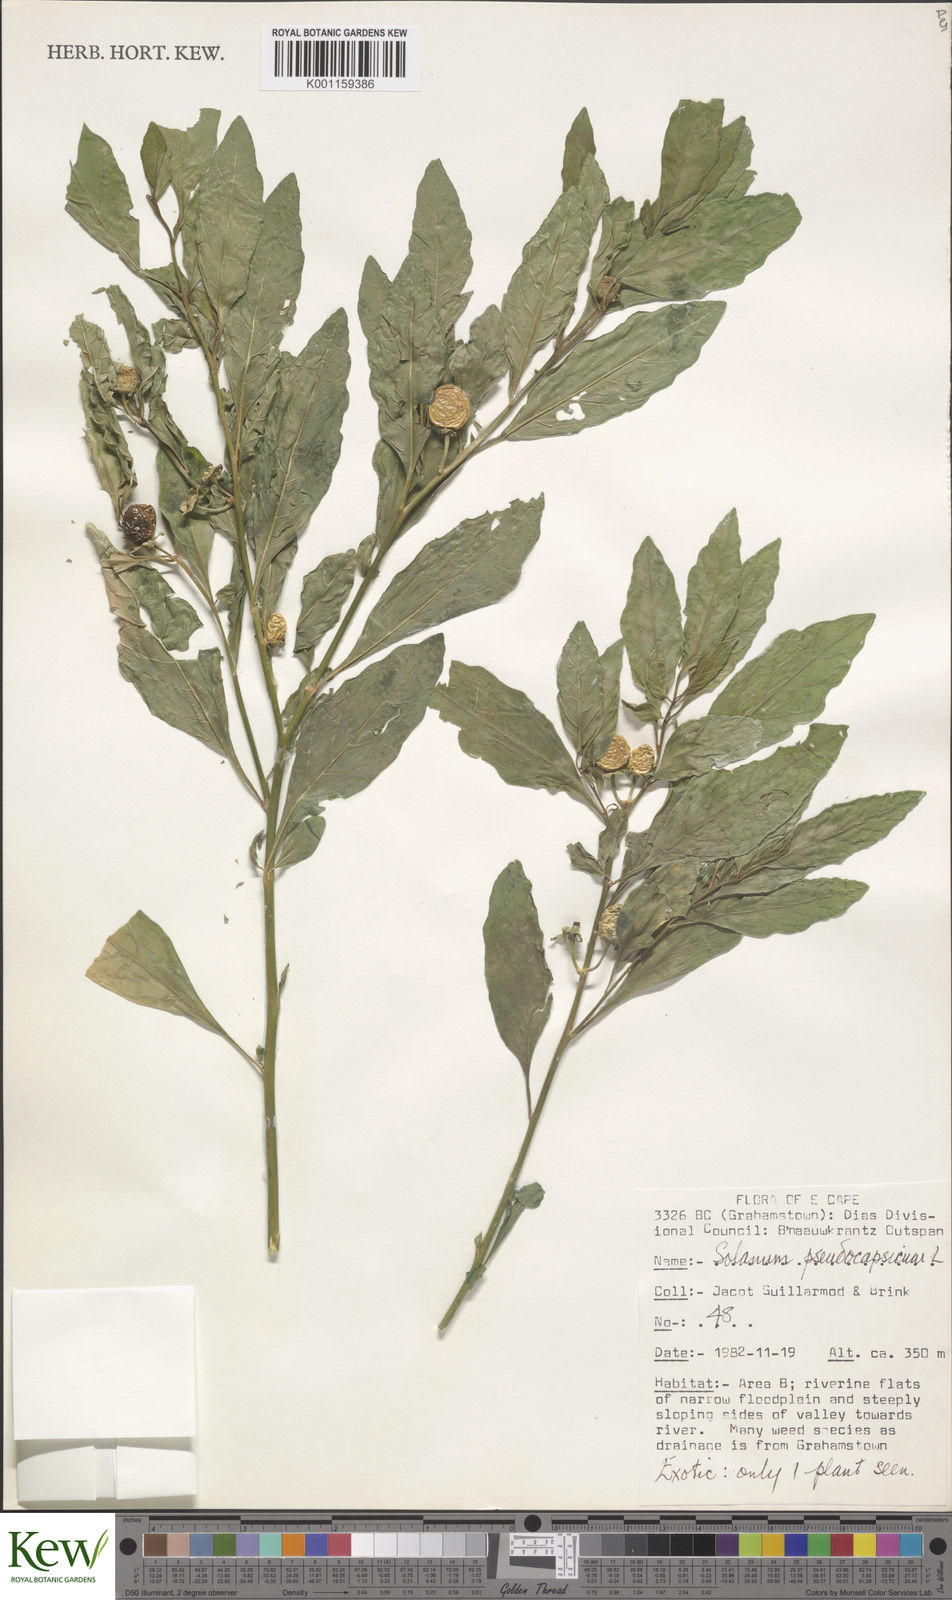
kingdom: Plantae
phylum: Tracheophyta
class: Magnoliopsida
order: Solanales
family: Solanaceae
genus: Solanum
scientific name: Solanum pseudocapsicum
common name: Jerusalem cherry
